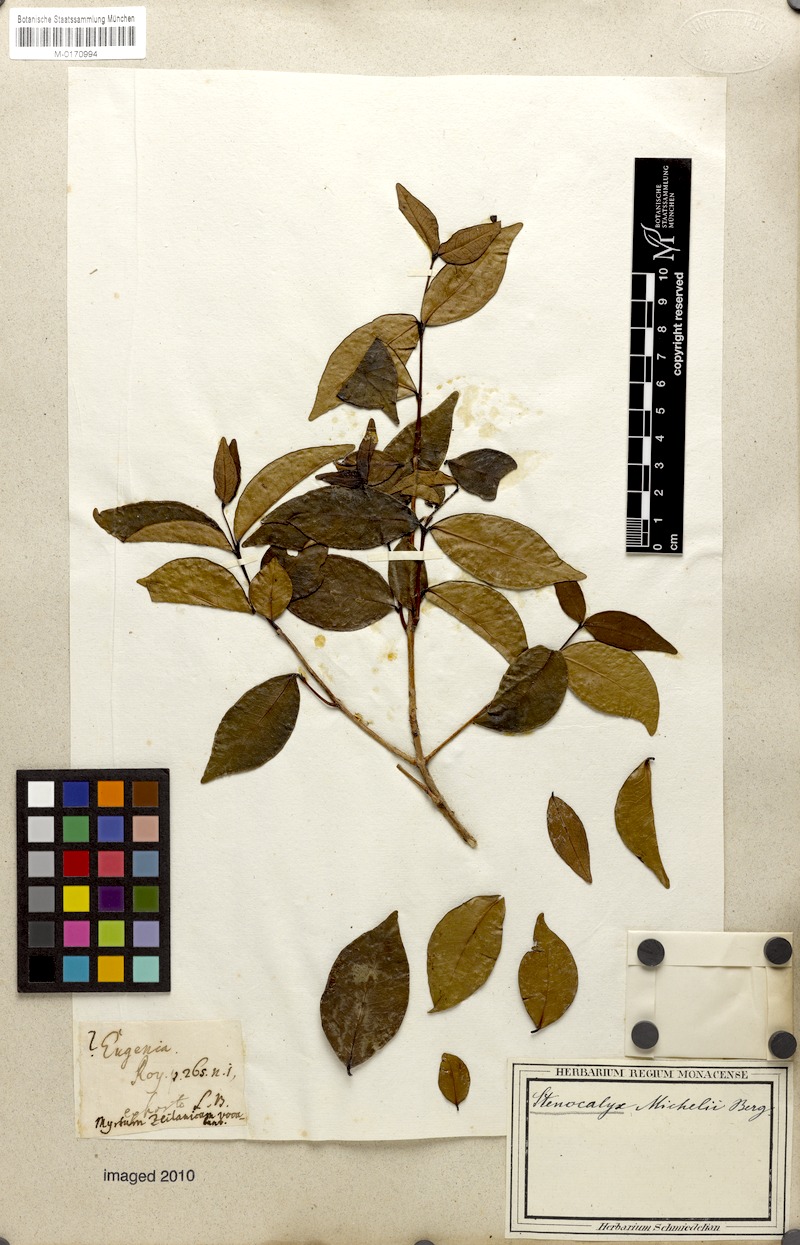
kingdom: Plantae
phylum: Tracheophyta
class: Magnoliopsida
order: Myrtales
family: Myrtaceae
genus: Eugenia
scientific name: Eugenia uniflora
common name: Surinam cherry
